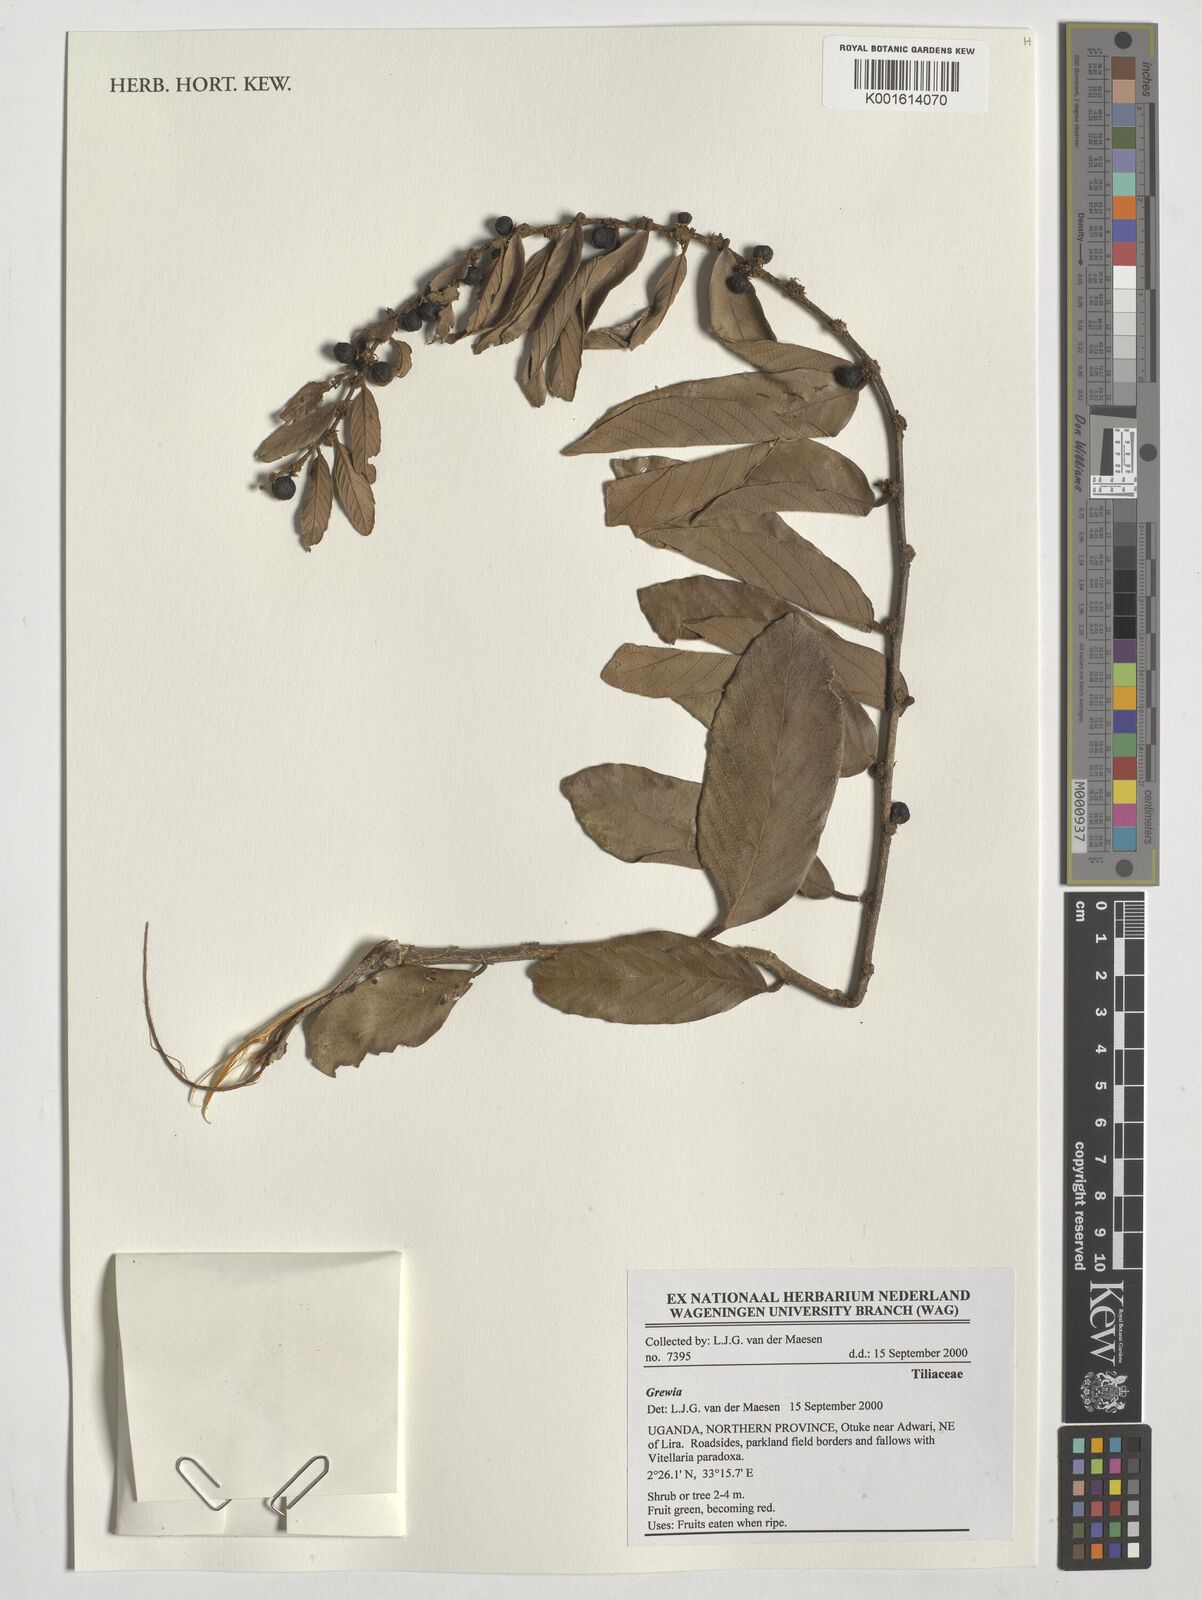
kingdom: Plantae
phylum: Tracheophyta
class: Magnoliopsida
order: Malvales
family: Malvaceae
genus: Grewia
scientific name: Grewia
